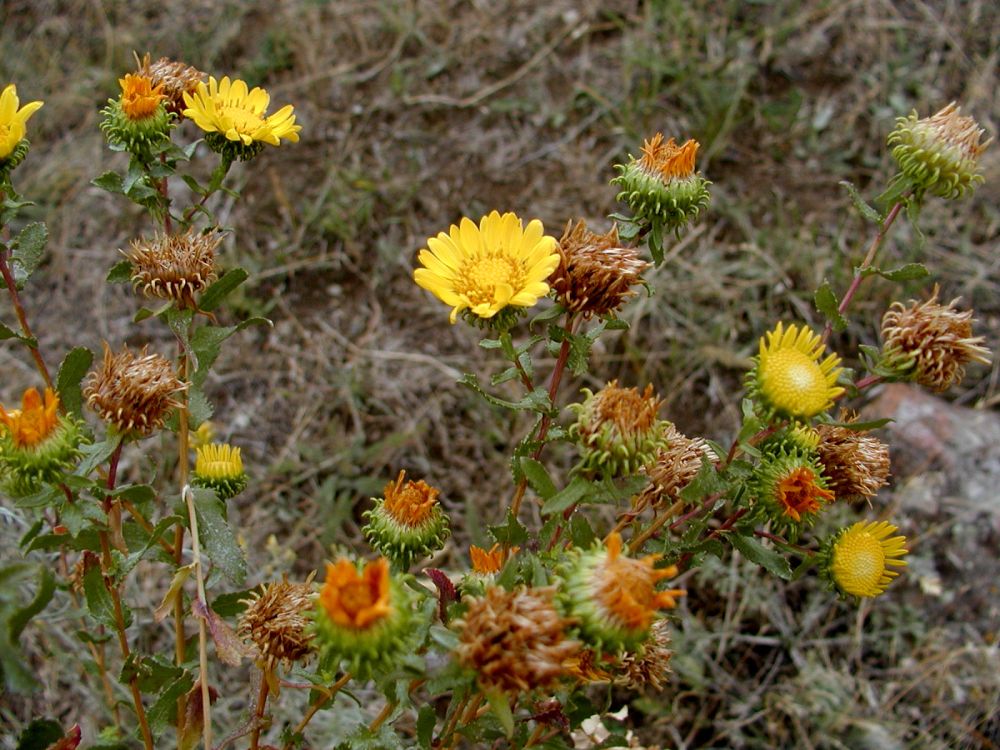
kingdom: Plantae
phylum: Tracheophyta
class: Magnoliopsida
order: Asterales
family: Asteraceae
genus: Grindelia
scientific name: Grindelia squarrosa
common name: Curly-cup gumweed
